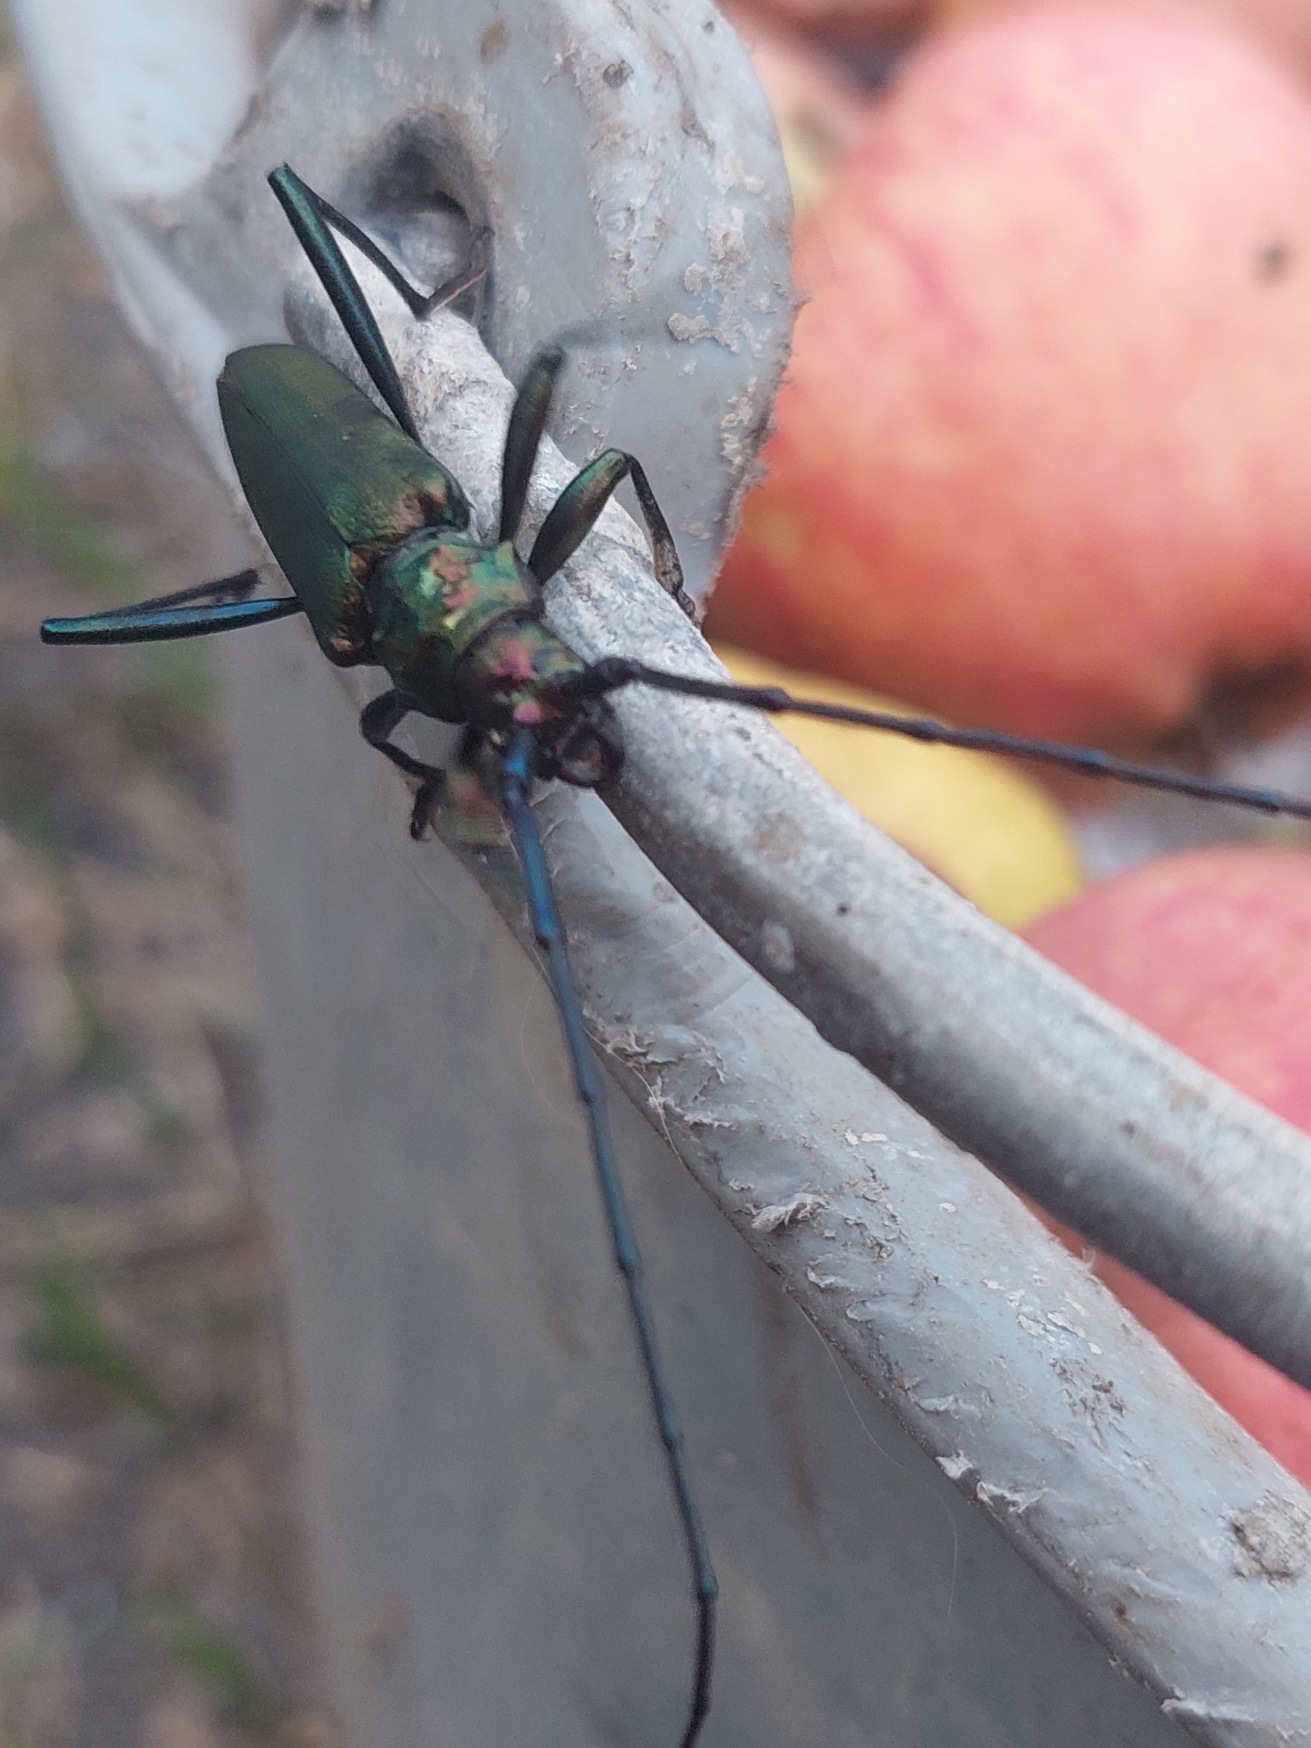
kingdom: Animalia
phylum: Arthropoda
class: Insecta
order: Coleoptera
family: Cerambycidae
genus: Aromia
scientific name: Aromia moschata
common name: Moskusbuk
